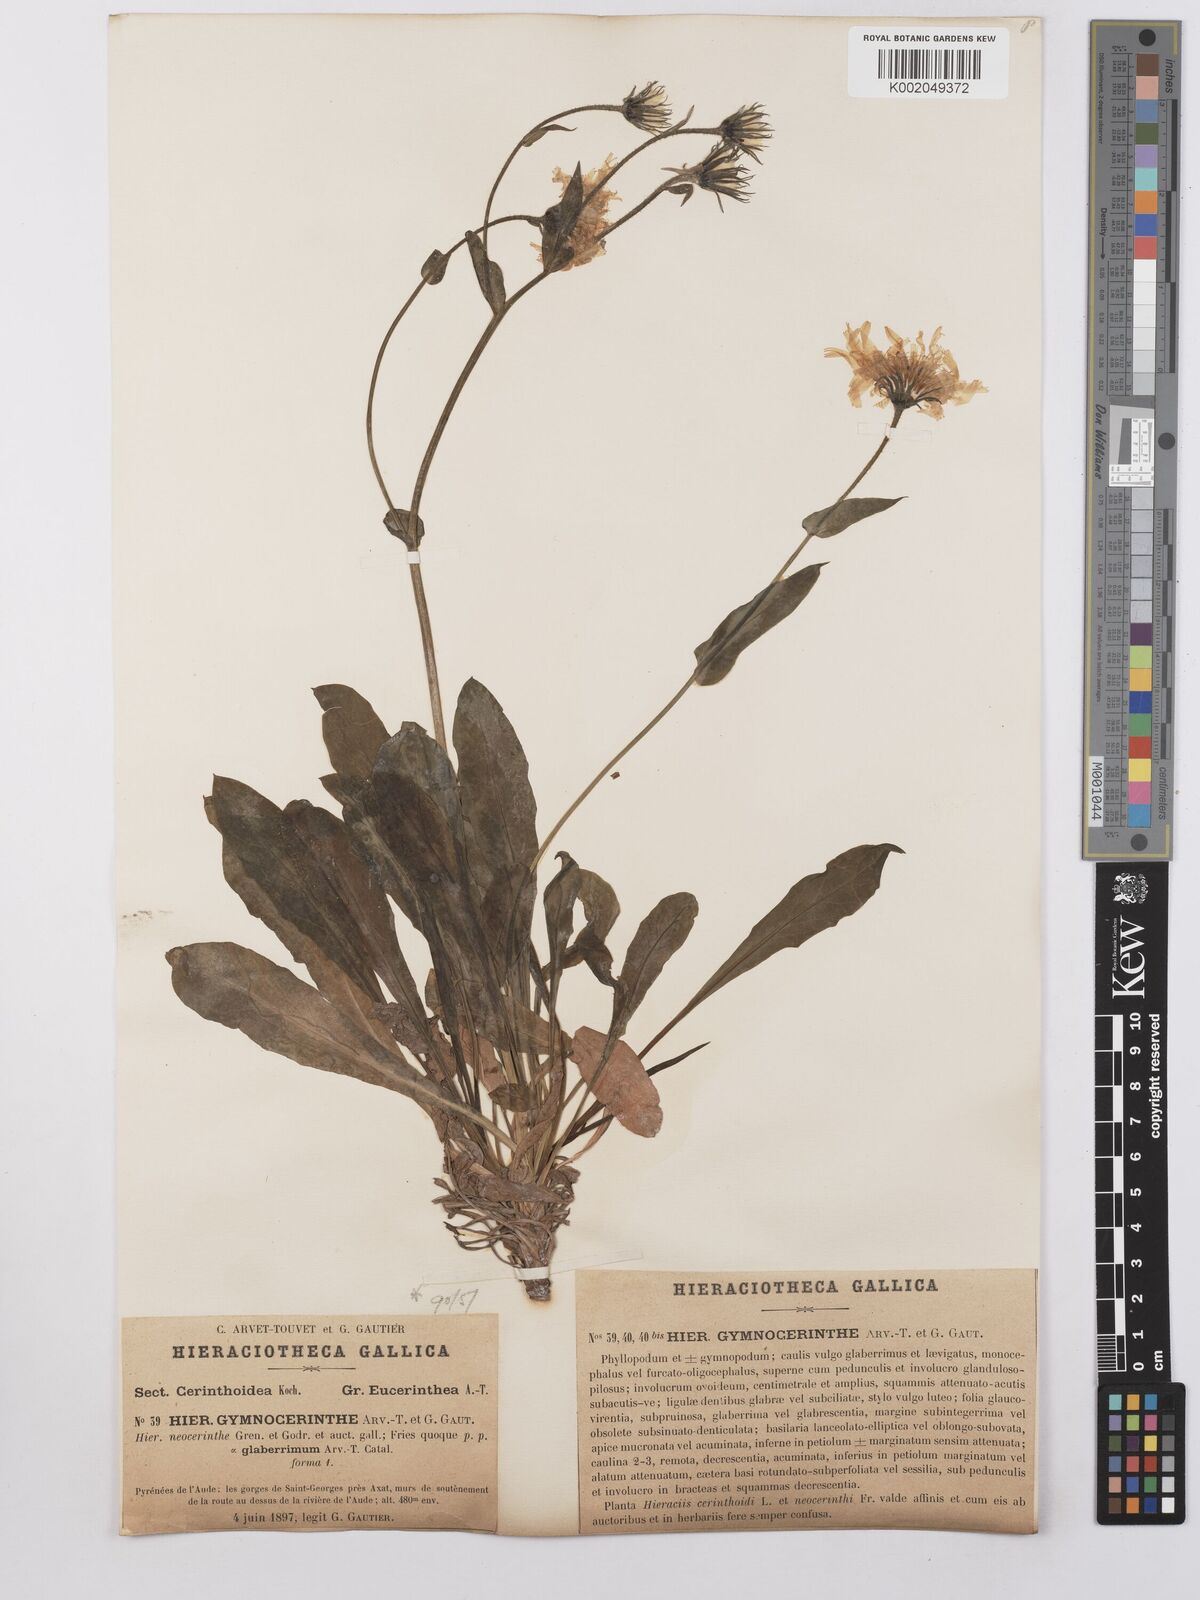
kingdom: Plantae
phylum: Tracheophyta
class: Magnoliopsida
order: Asterales
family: Asteraceae
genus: Hieracium
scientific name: Hieracium cerinthoides
